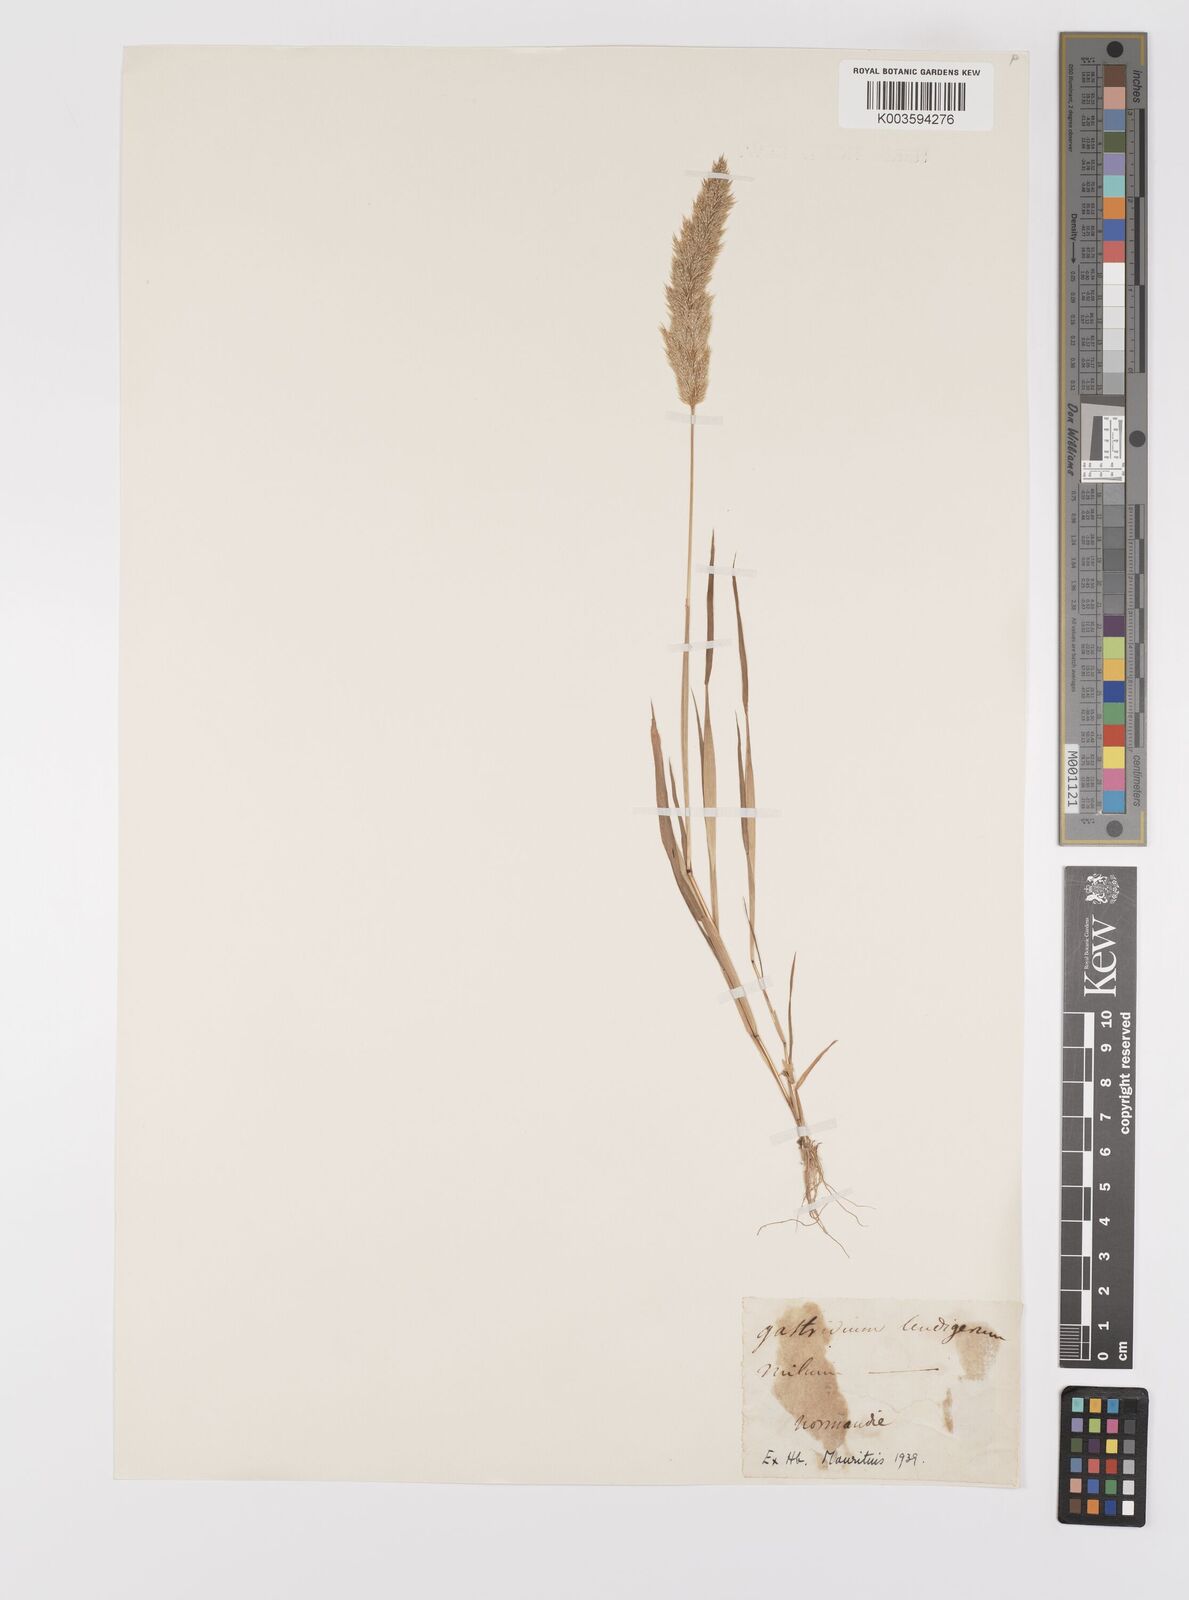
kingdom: Plantae
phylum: Tracheophyta
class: Liliopsida
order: Poales
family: Poaceae
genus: Gastridium
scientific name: Gastridium ventricosum
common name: Nit-grass
